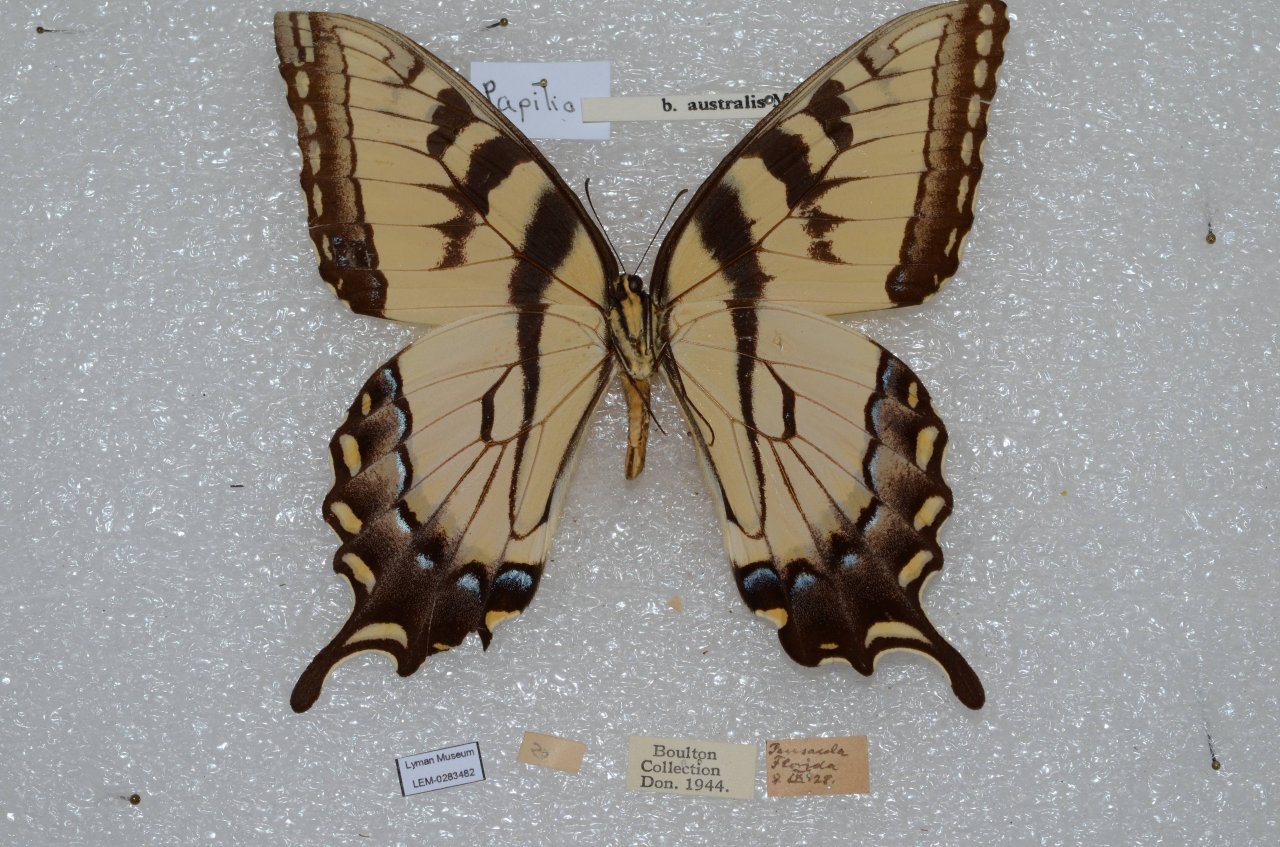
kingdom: Animalia
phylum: Arthropoda
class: Insecta
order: Lepidoptera
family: Papilionidae
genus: Pterourus
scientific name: Pterourus glaucus
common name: Eastern Tiger Swallowtail
